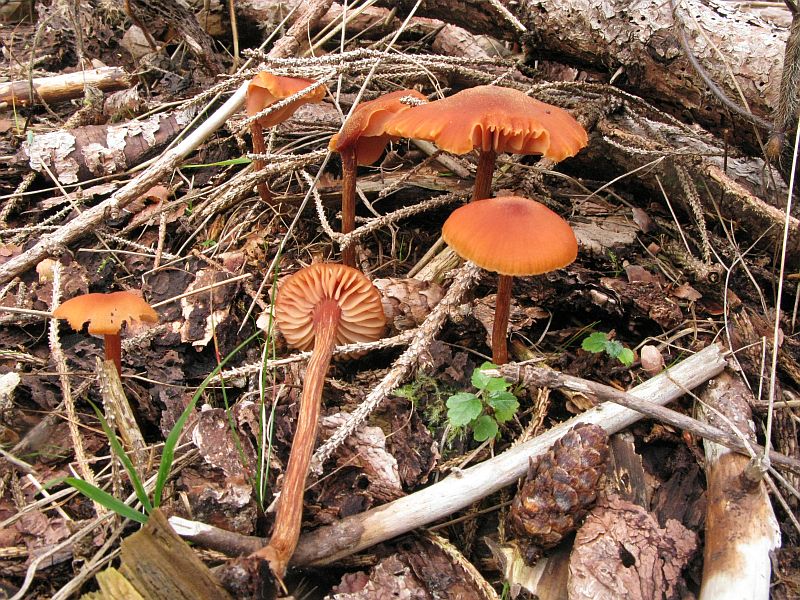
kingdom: Fungi
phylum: Basidiomycota
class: Agaricomycetes
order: Agaricales
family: Hydnangiaceae
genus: Laccaria
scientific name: Laccaria proxima
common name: stor ametysthat
